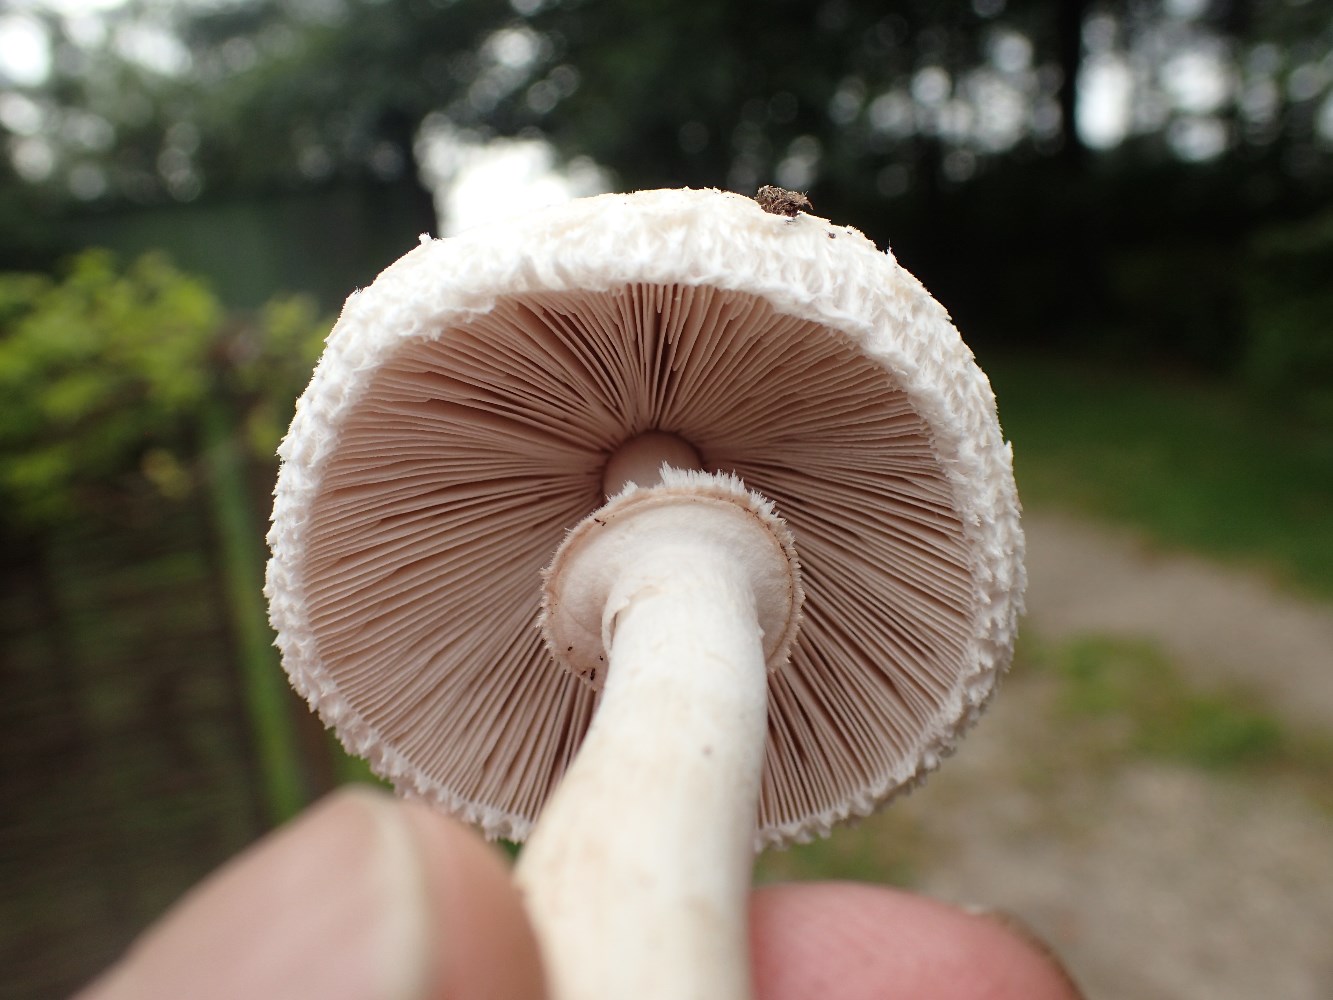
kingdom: Fungi
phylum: Basidiomycota
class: Agaricomycetes
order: Agaricales
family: Agaricaceae
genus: Macrolepiota
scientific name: Macrolepiota excoriata
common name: mark-kæmpeparasolhat
